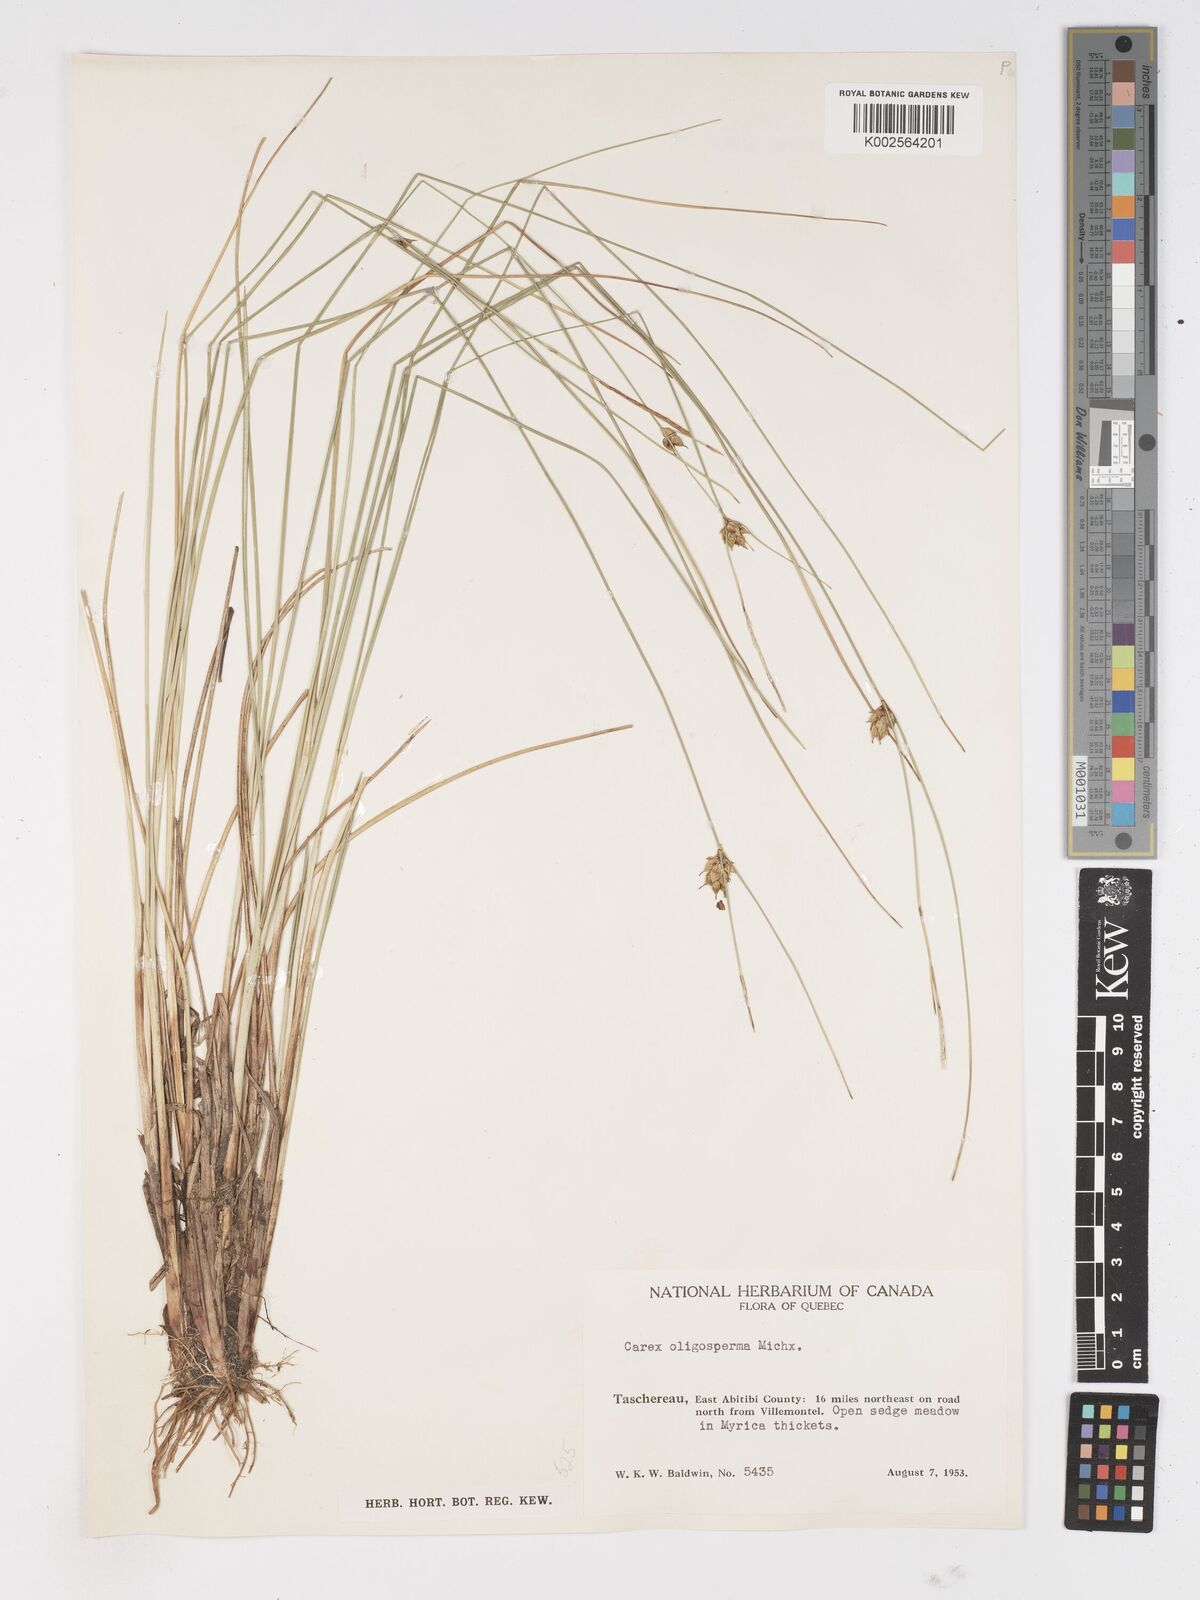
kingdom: Plantae
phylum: Tracheophyta
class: Liliopsida
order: Poales
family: Cyperaceae
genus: Carex
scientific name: Carex oligosperma
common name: Few-seed sedge
